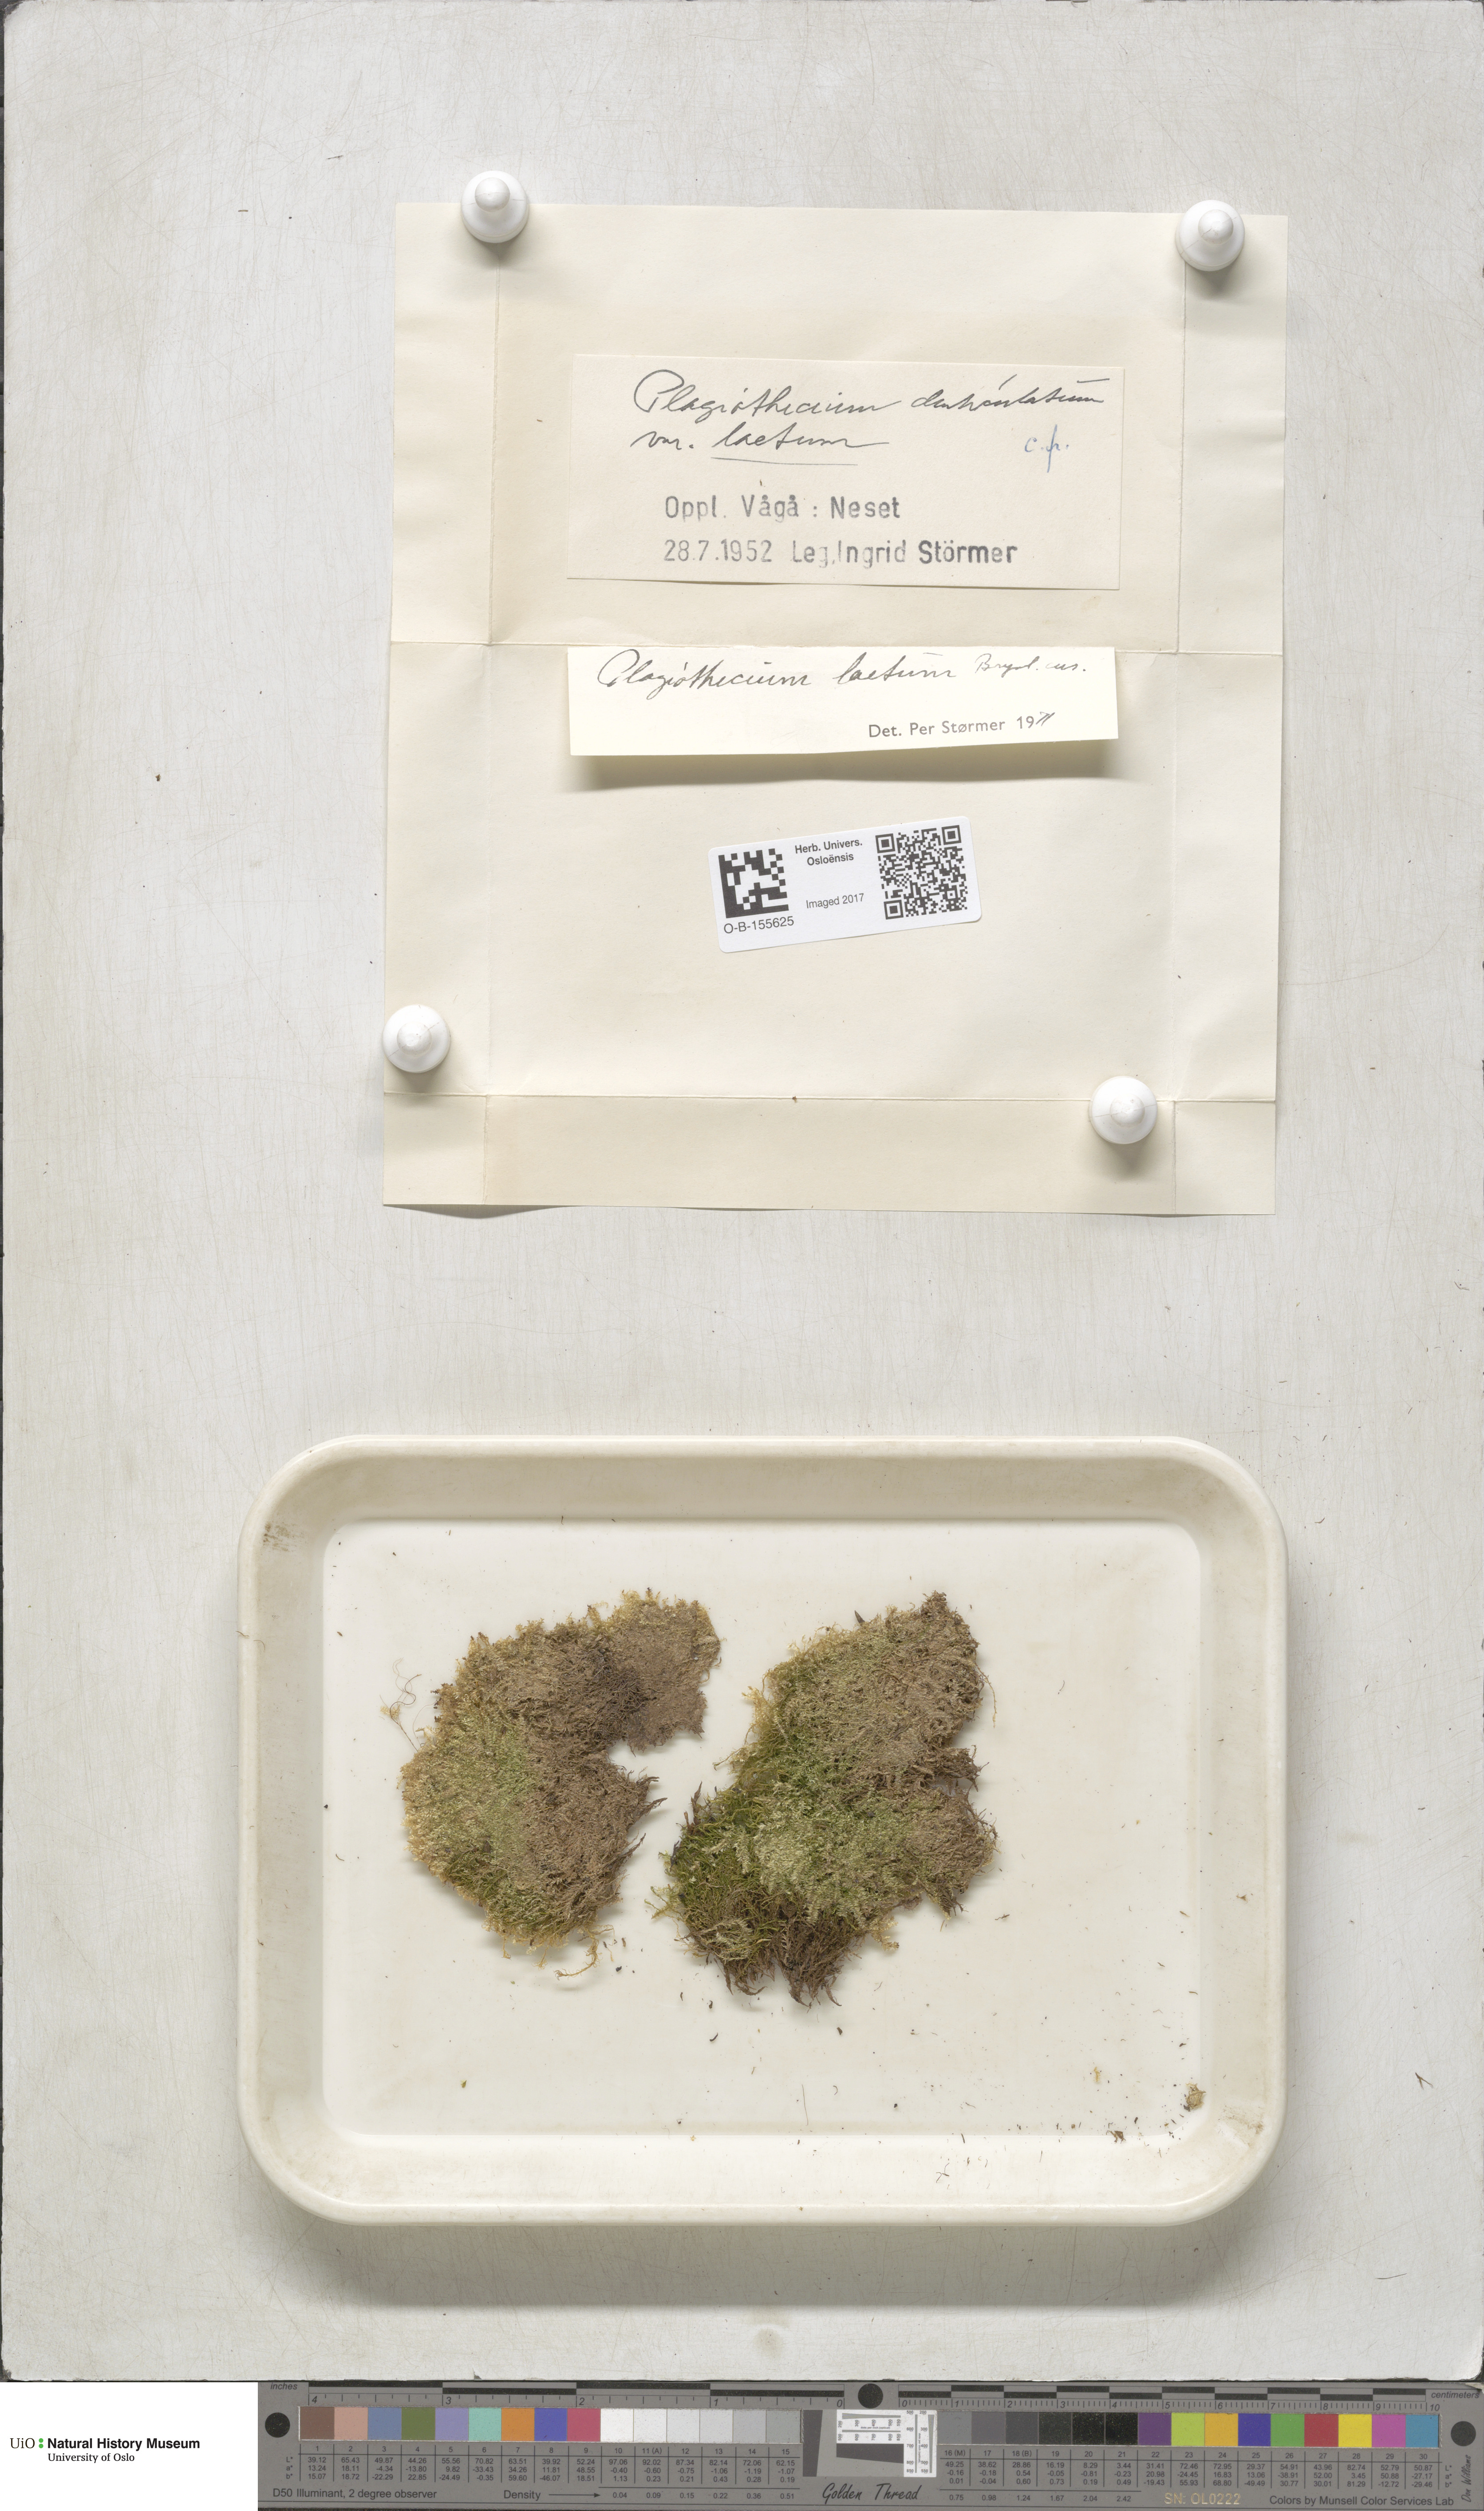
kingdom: Plantae
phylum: Bryophyta
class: Bryopsida
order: Hypnales
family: Plagiotheciaceae
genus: Plagiothecium
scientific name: Plagiothecium laetum
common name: Bright silk moss
